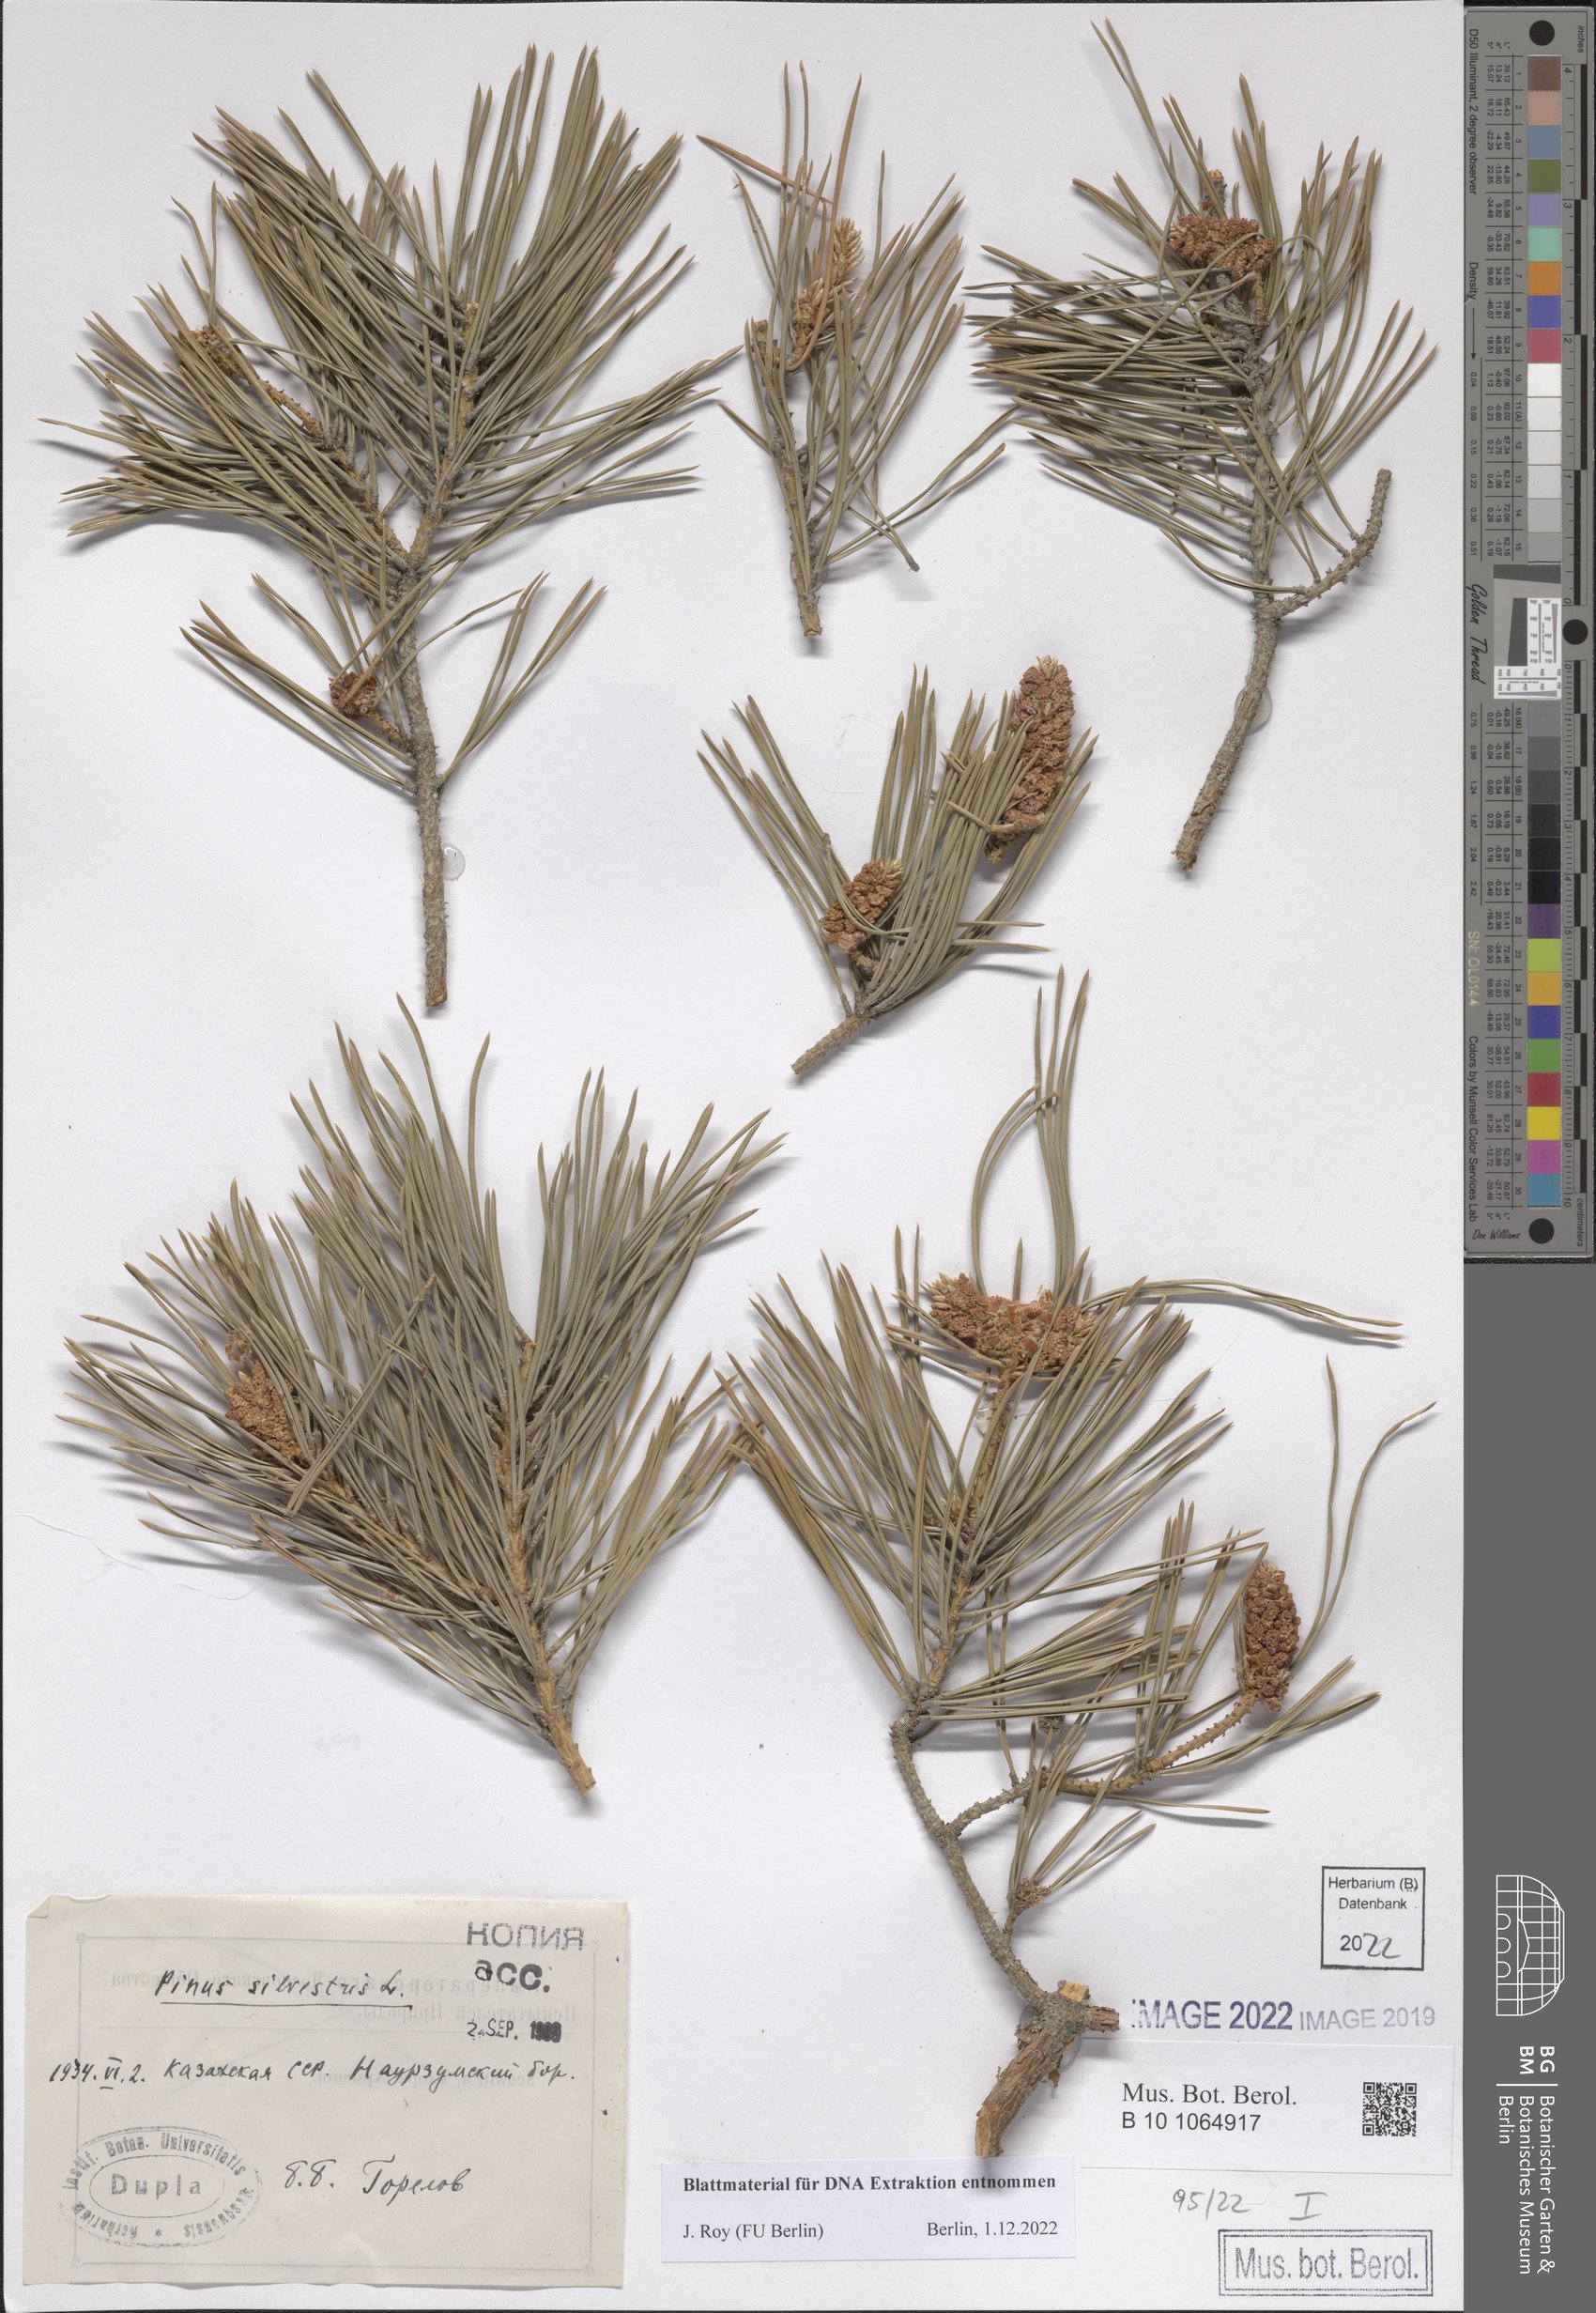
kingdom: Plantae
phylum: Tracheophyta
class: Pinopsida
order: Pinales
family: Pinaceae
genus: Pinus
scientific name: Pinus sylvestris
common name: Scots pine
